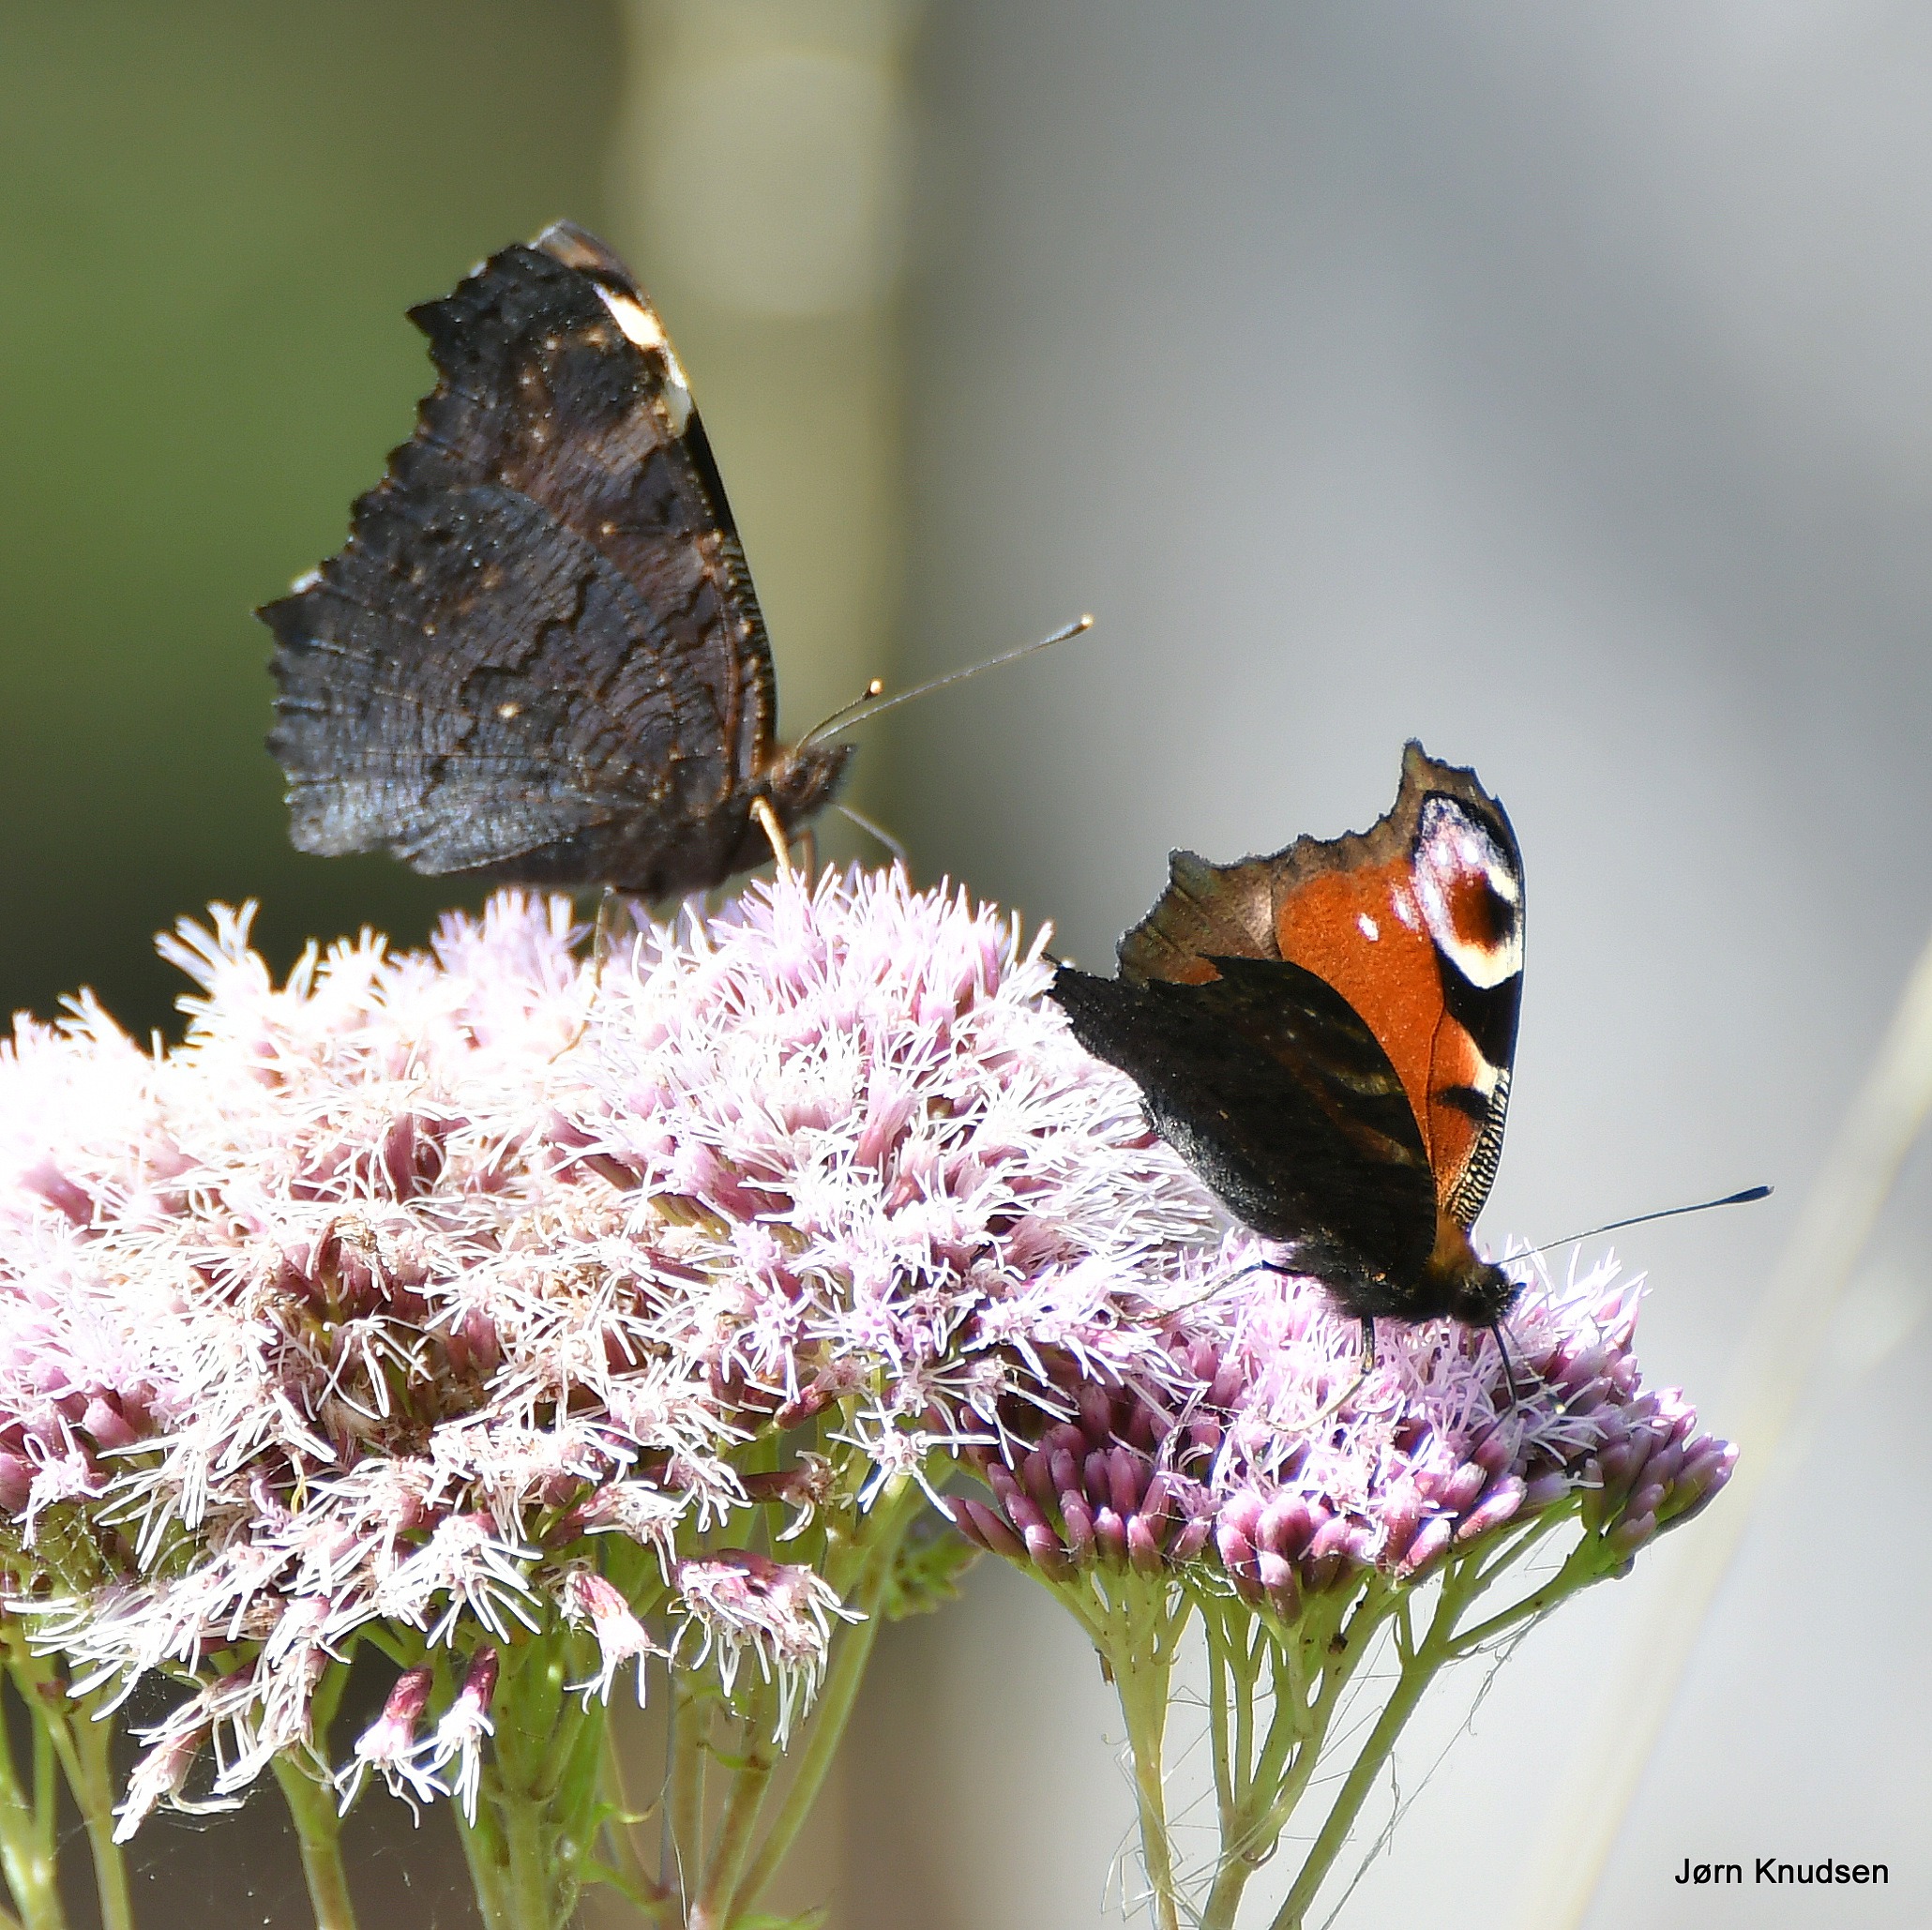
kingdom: Animalia
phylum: Arthropoda
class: Insecta
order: Lepidoptera
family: Nymphalidae
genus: Aglais
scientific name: Aglais io
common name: Dagpåfugleøje
